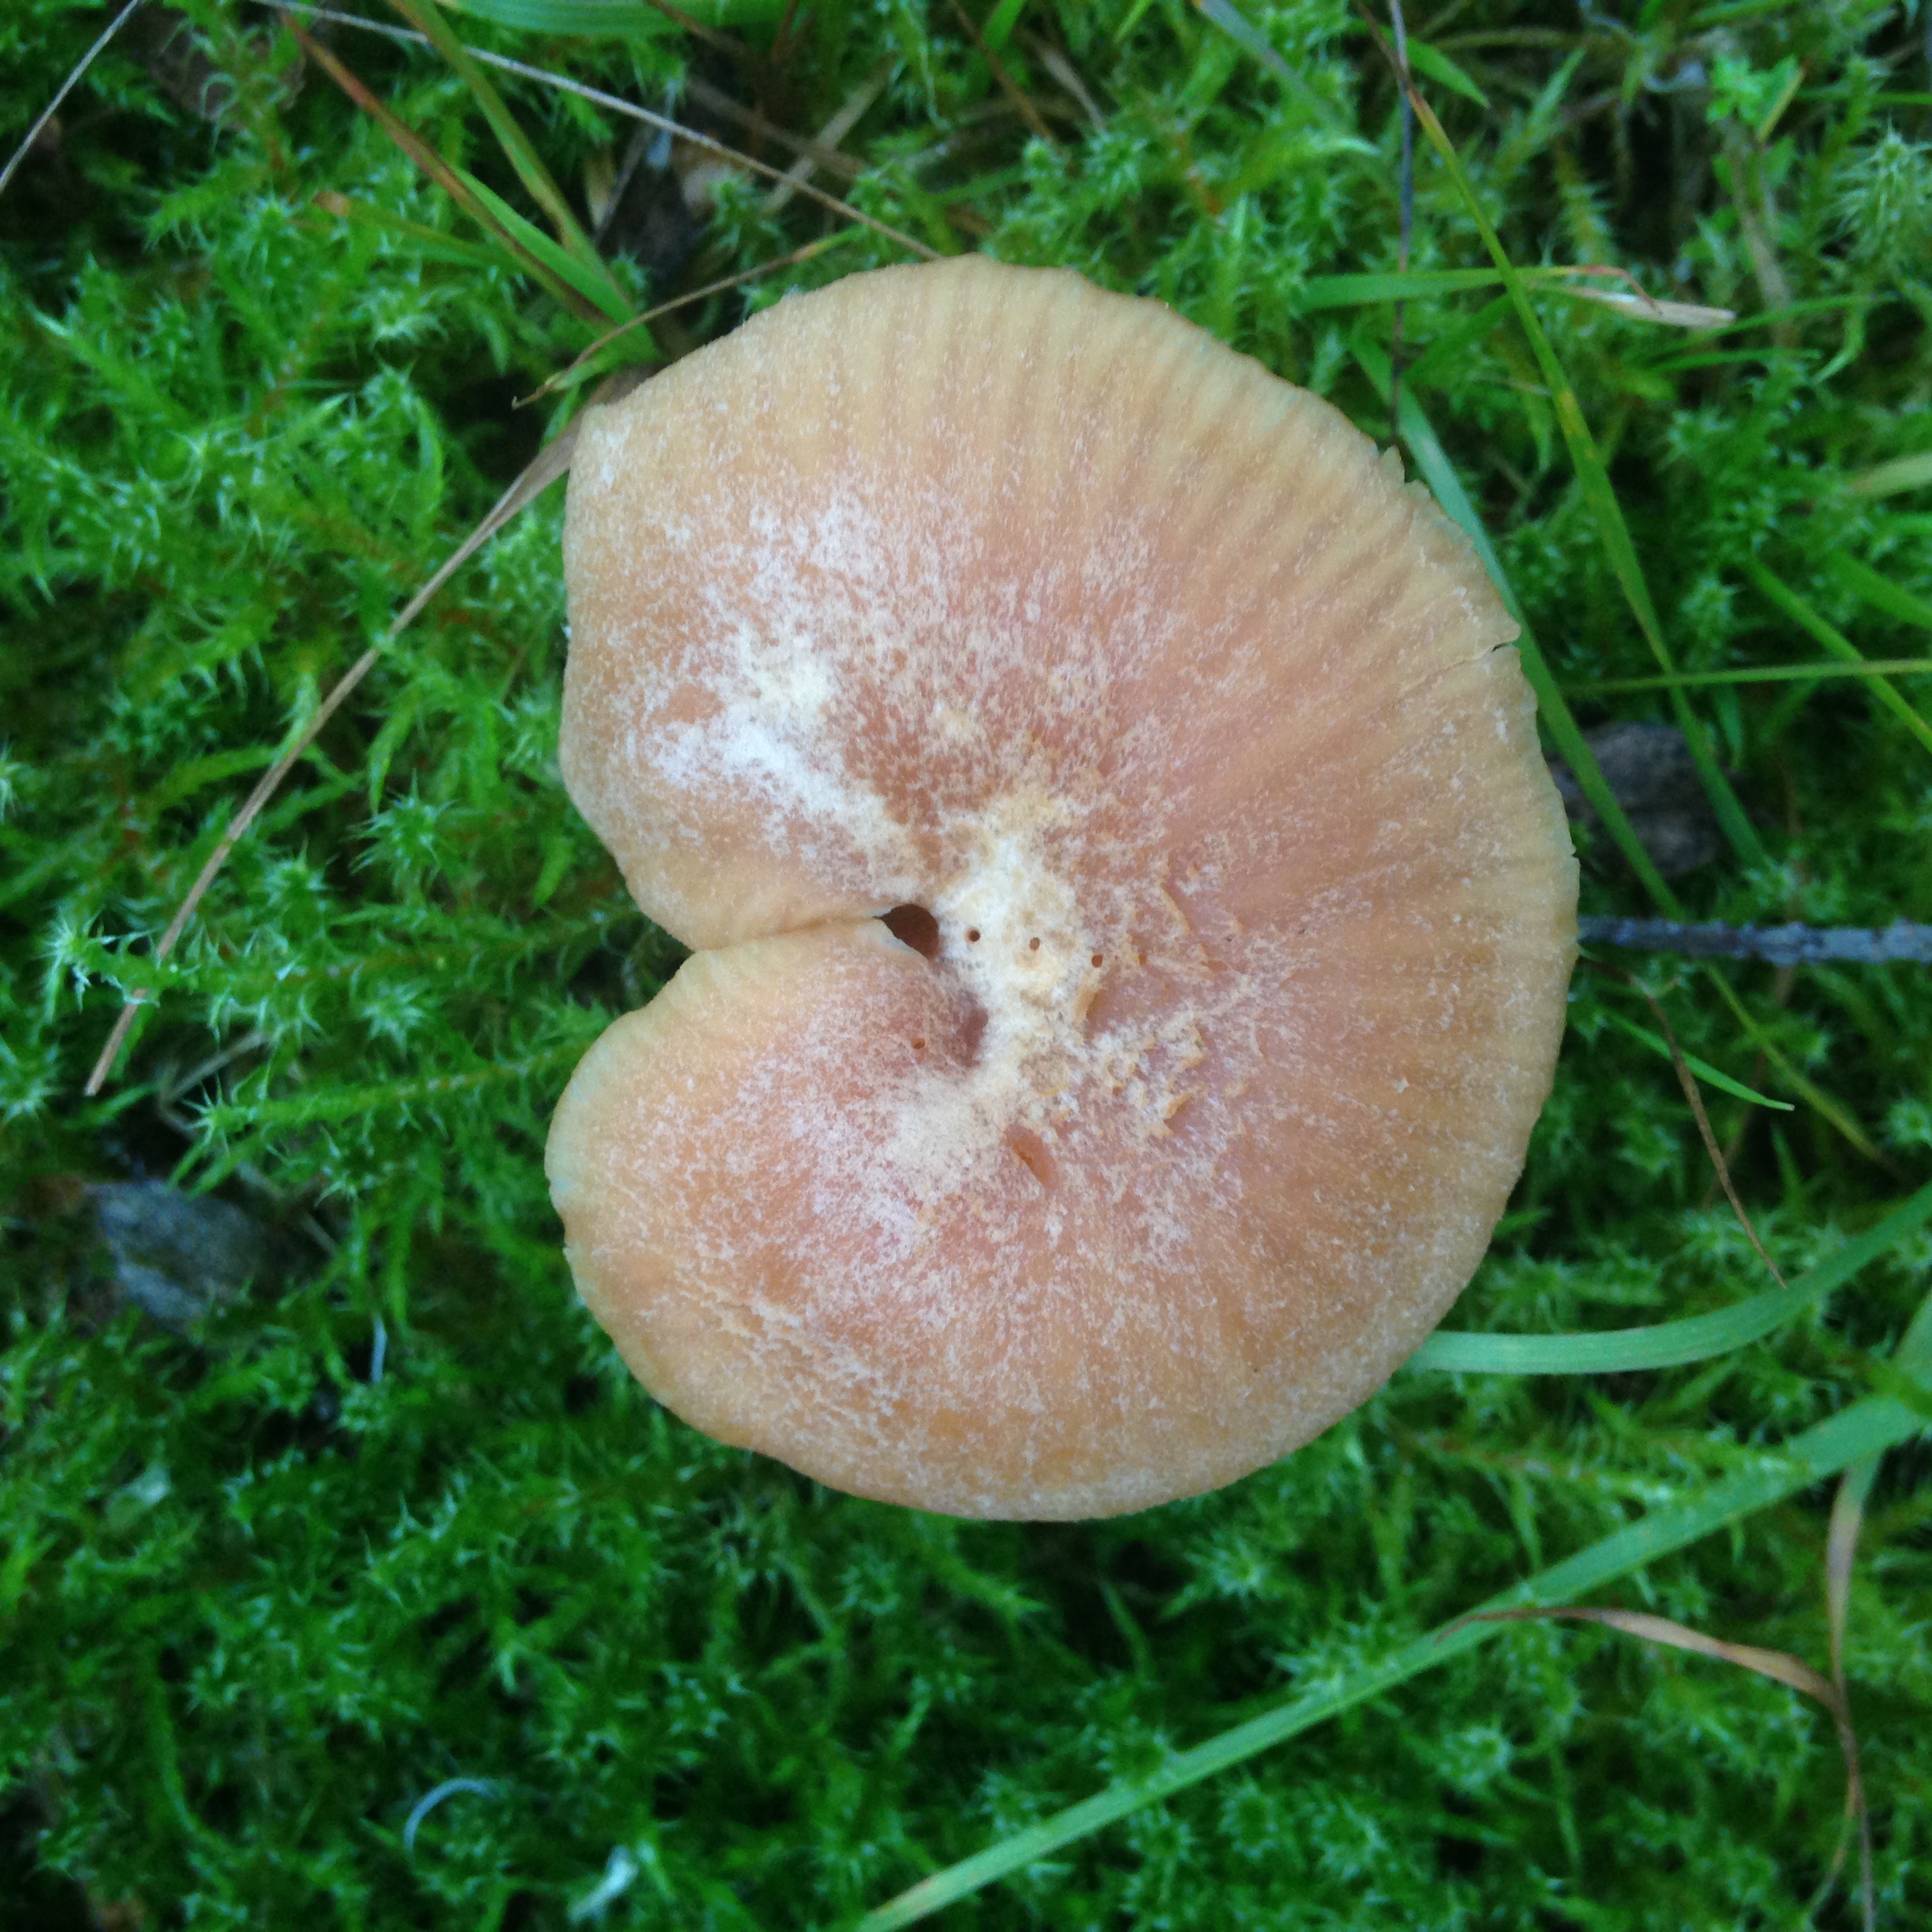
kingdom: Fungi
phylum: Basidiomycota
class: Agaricomycetes
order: Agaricales
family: Hydnangiaceae
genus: Laccaria
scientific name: Laccaria laccata
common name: Deceiver
